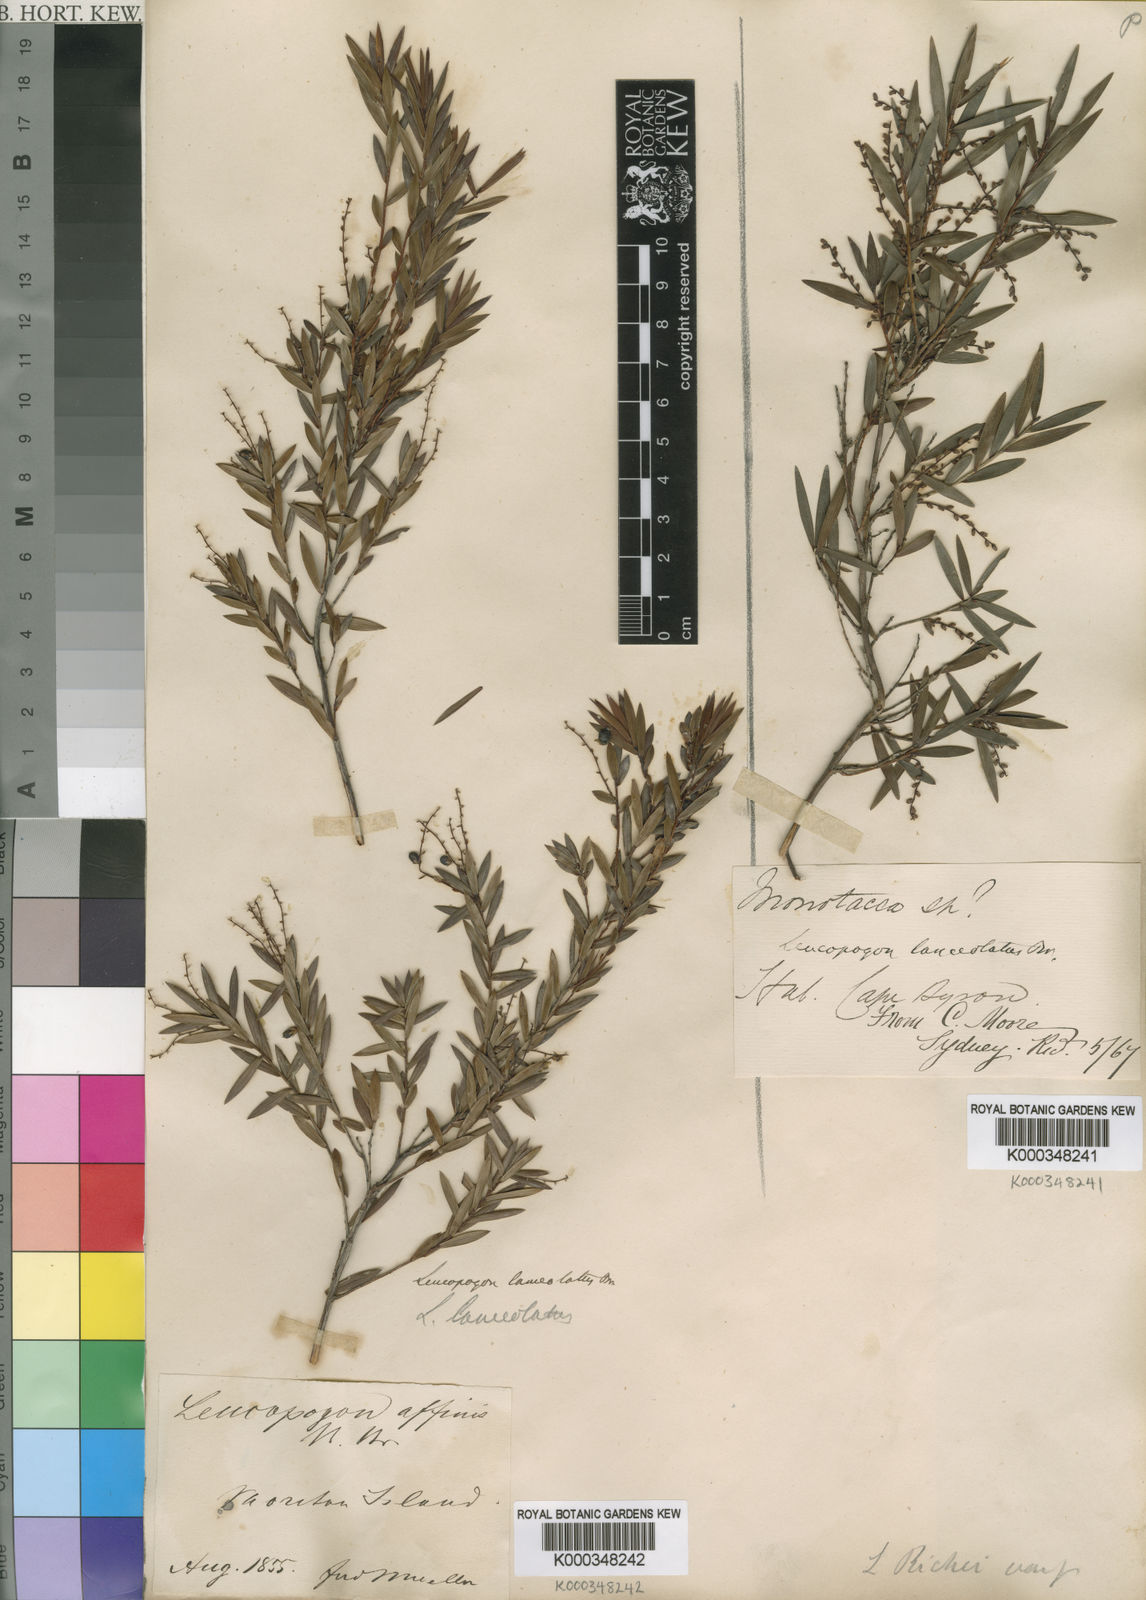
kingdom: Plantae
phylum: Tracheophyta
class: Magnoliopsida
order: Ericales
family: Ericaceae
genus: Leucopogon
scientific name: Leucopogon lanceolatus
